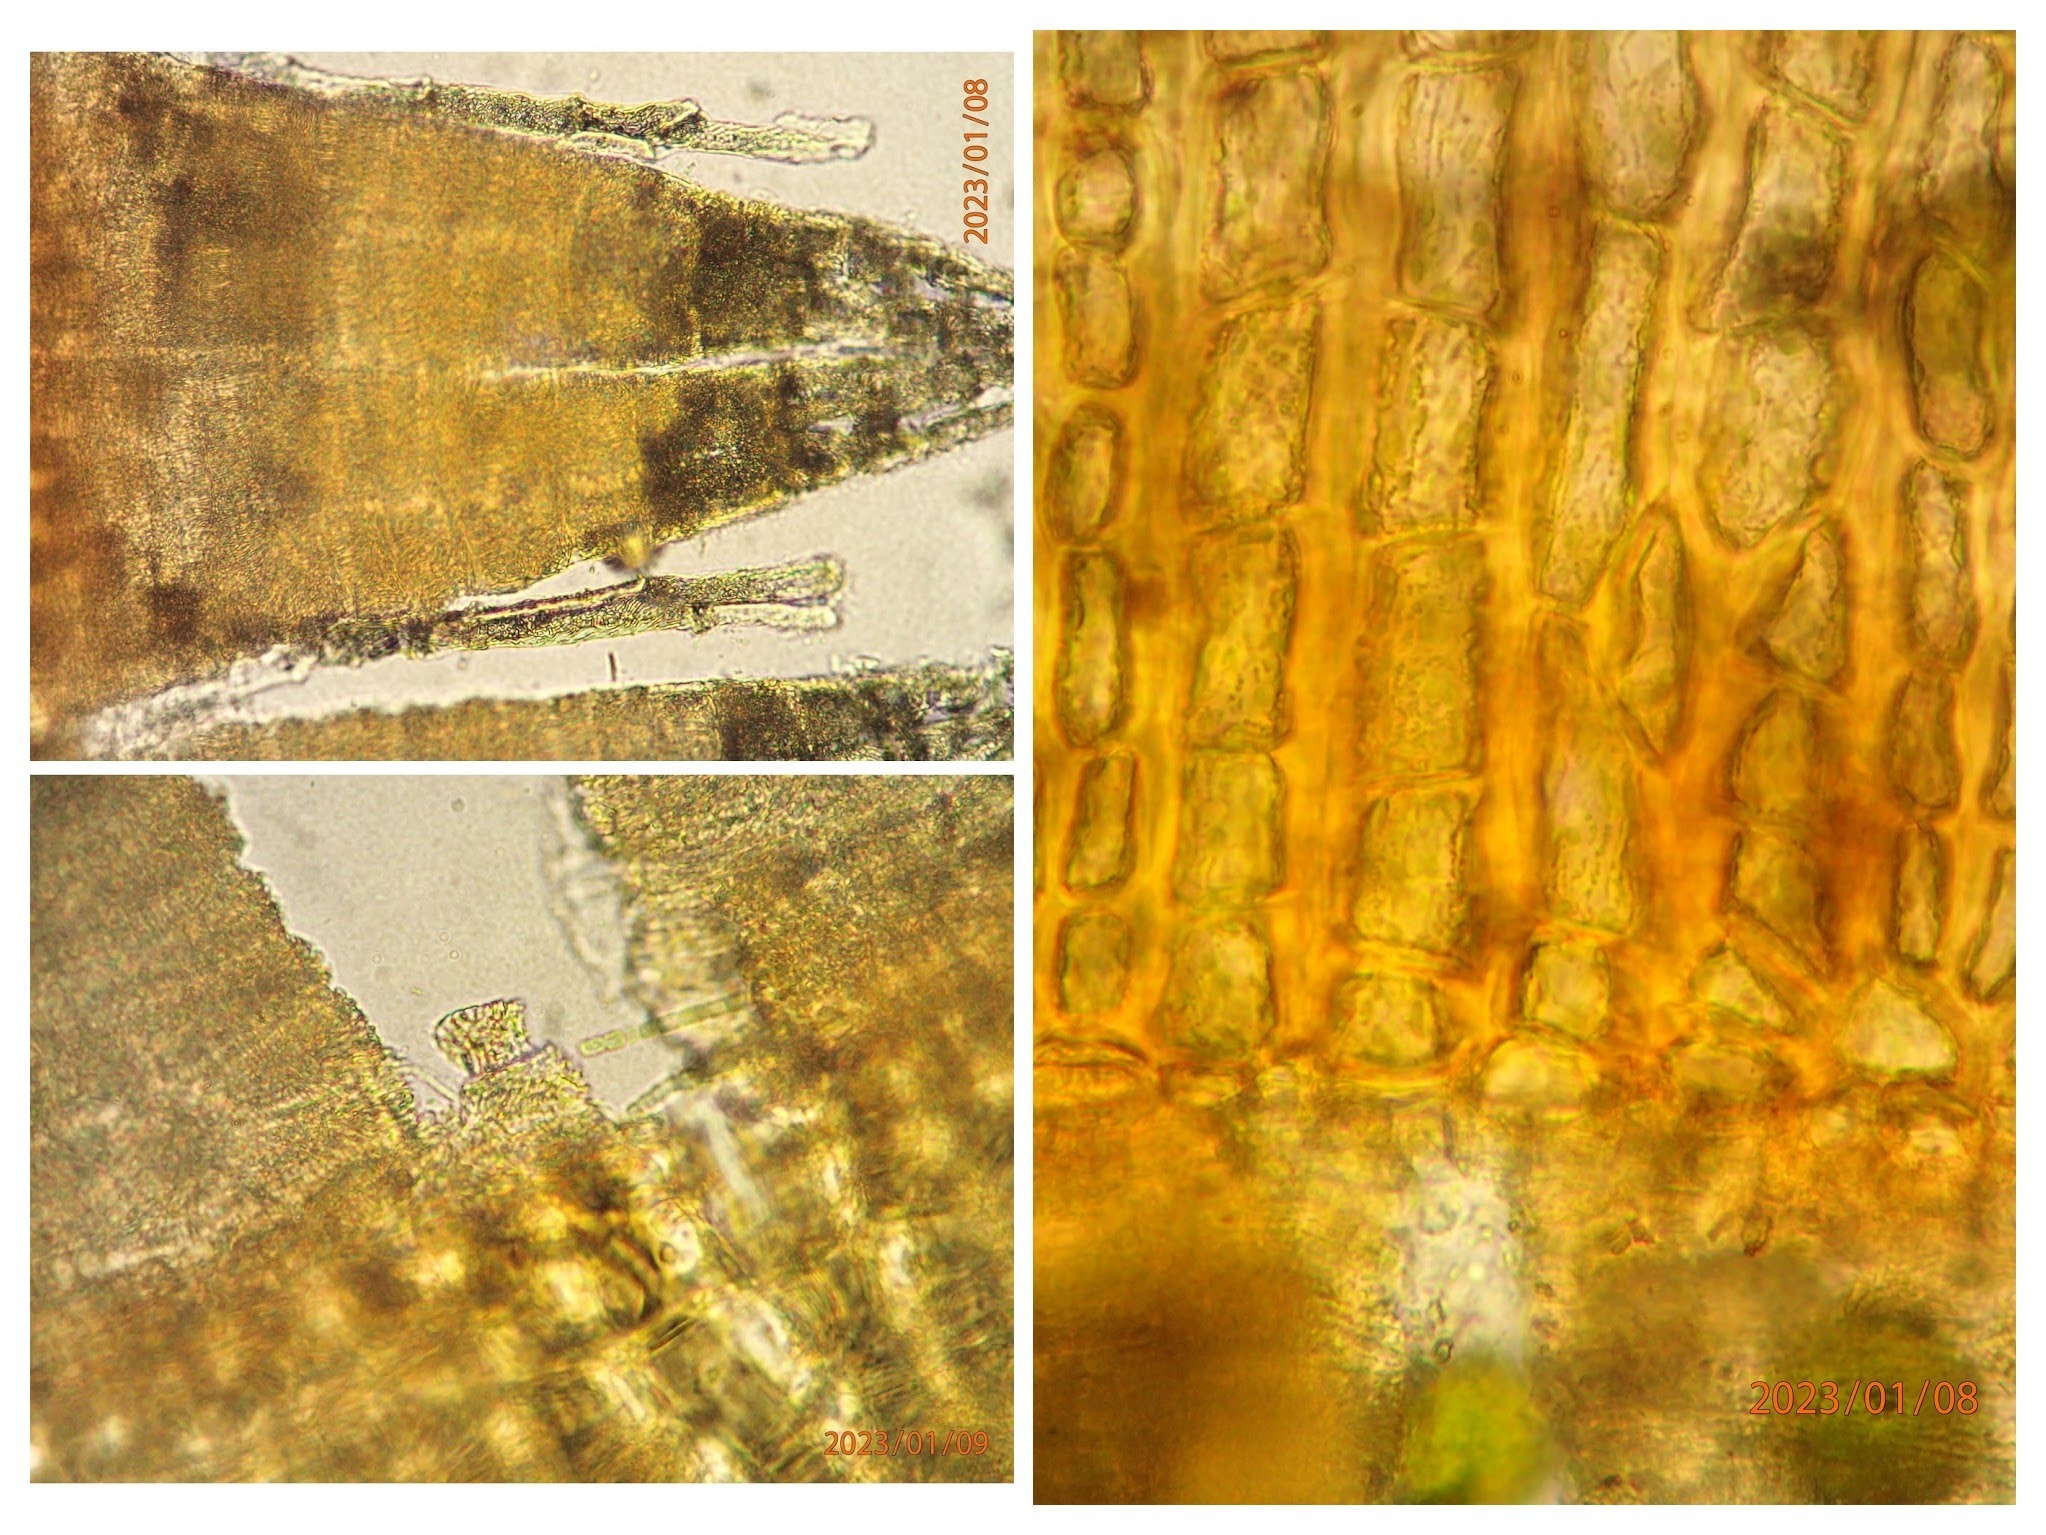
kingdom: Plantae
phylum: Bryophyta
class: Bryopsida
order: Orthotrichales
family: Orthotrichaceae
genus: Ulota
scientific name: Ulota bruchii
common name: Bruchs låddenhætte
